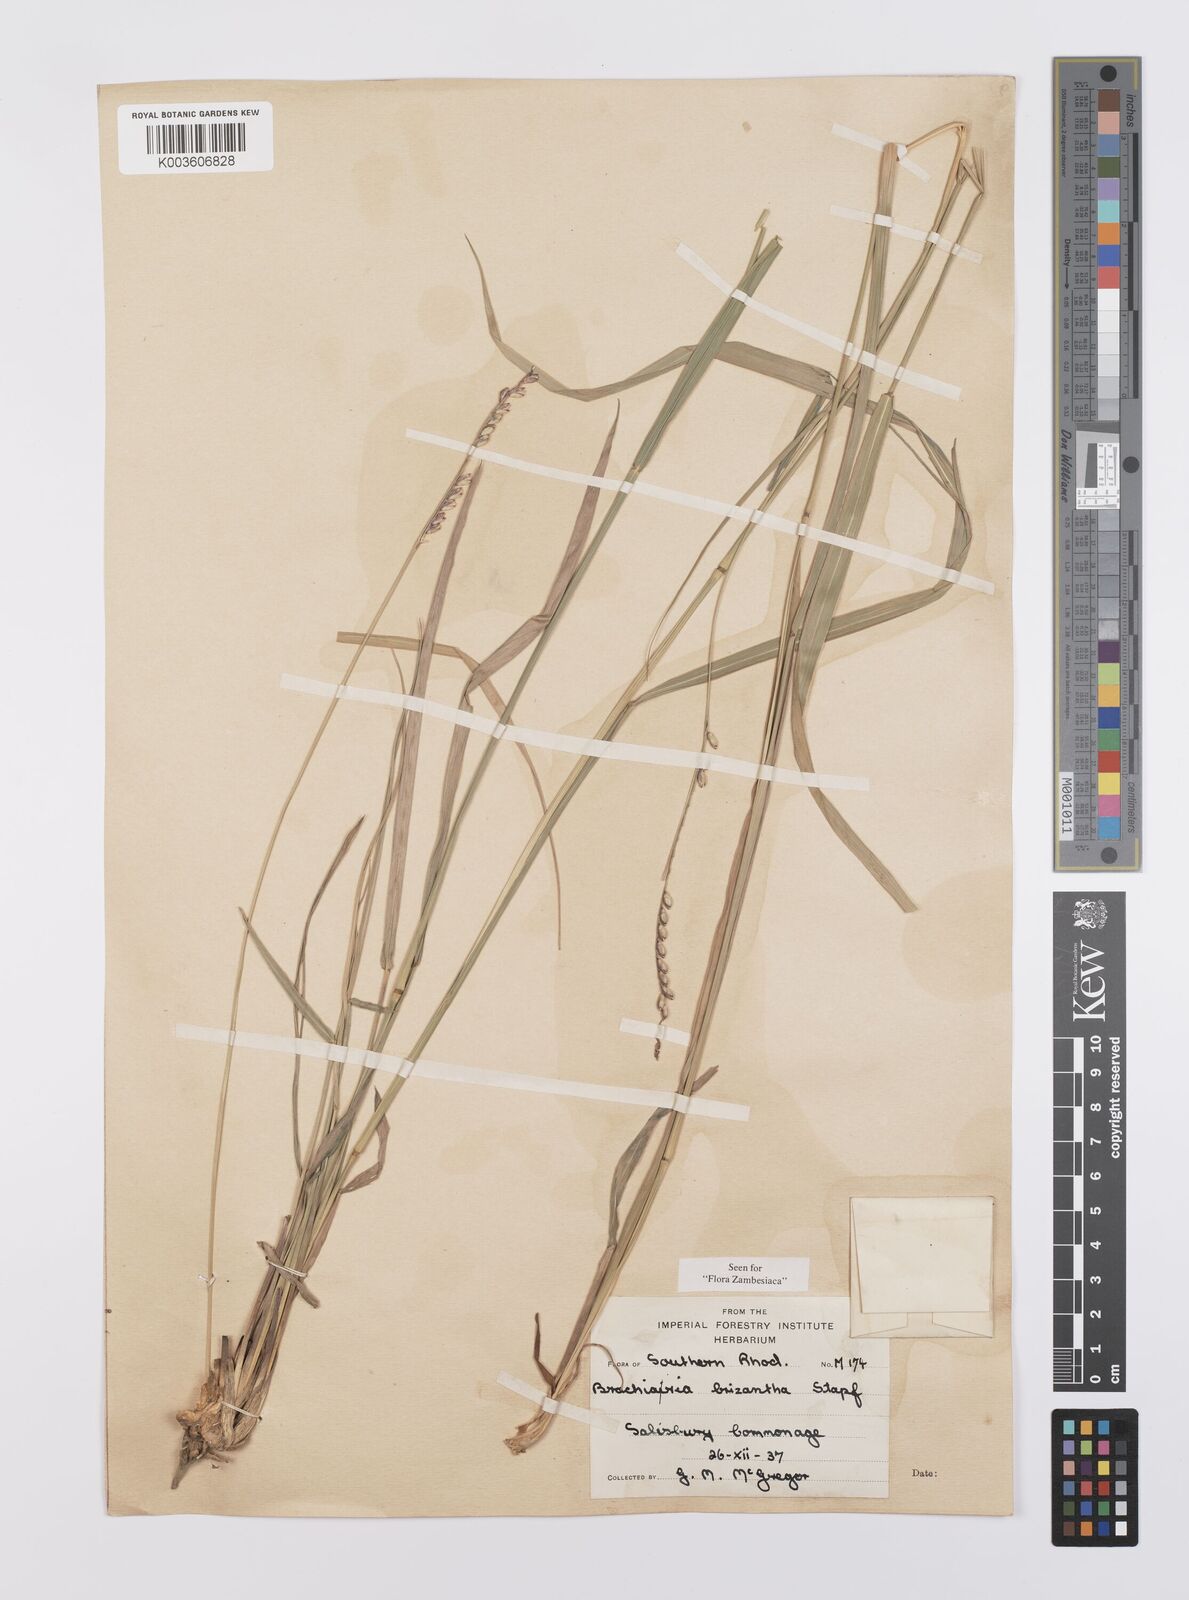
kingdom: Plantae
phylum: Tracheophyta
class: Liliopsida
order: Poales
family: Poaceae
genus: Urochloa
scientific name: Urochloa brizantha
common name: Palisade signalgrass
